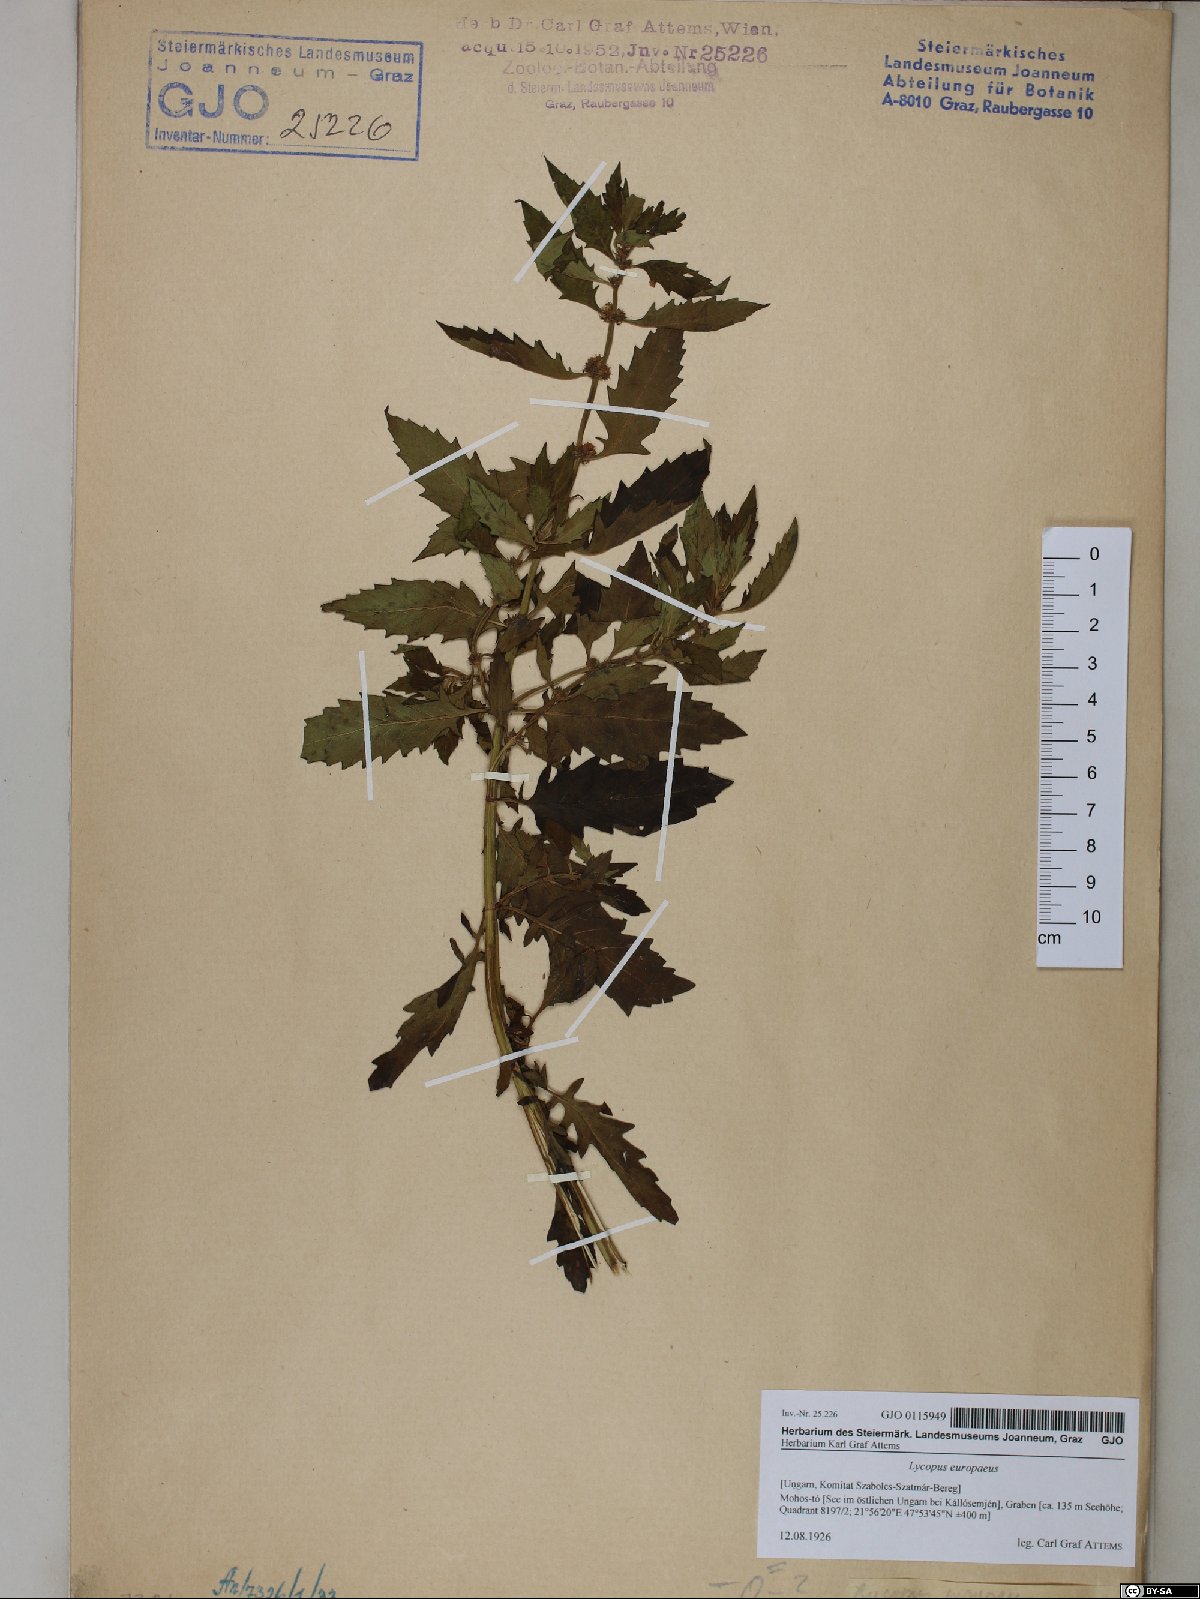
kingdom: Plantae
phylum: Tracheophyta
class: Magnoliopsida
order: Lamiales
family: Lamiaceae
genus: Lycopus
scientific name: Lycopus europaeus
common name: European bugleweed
